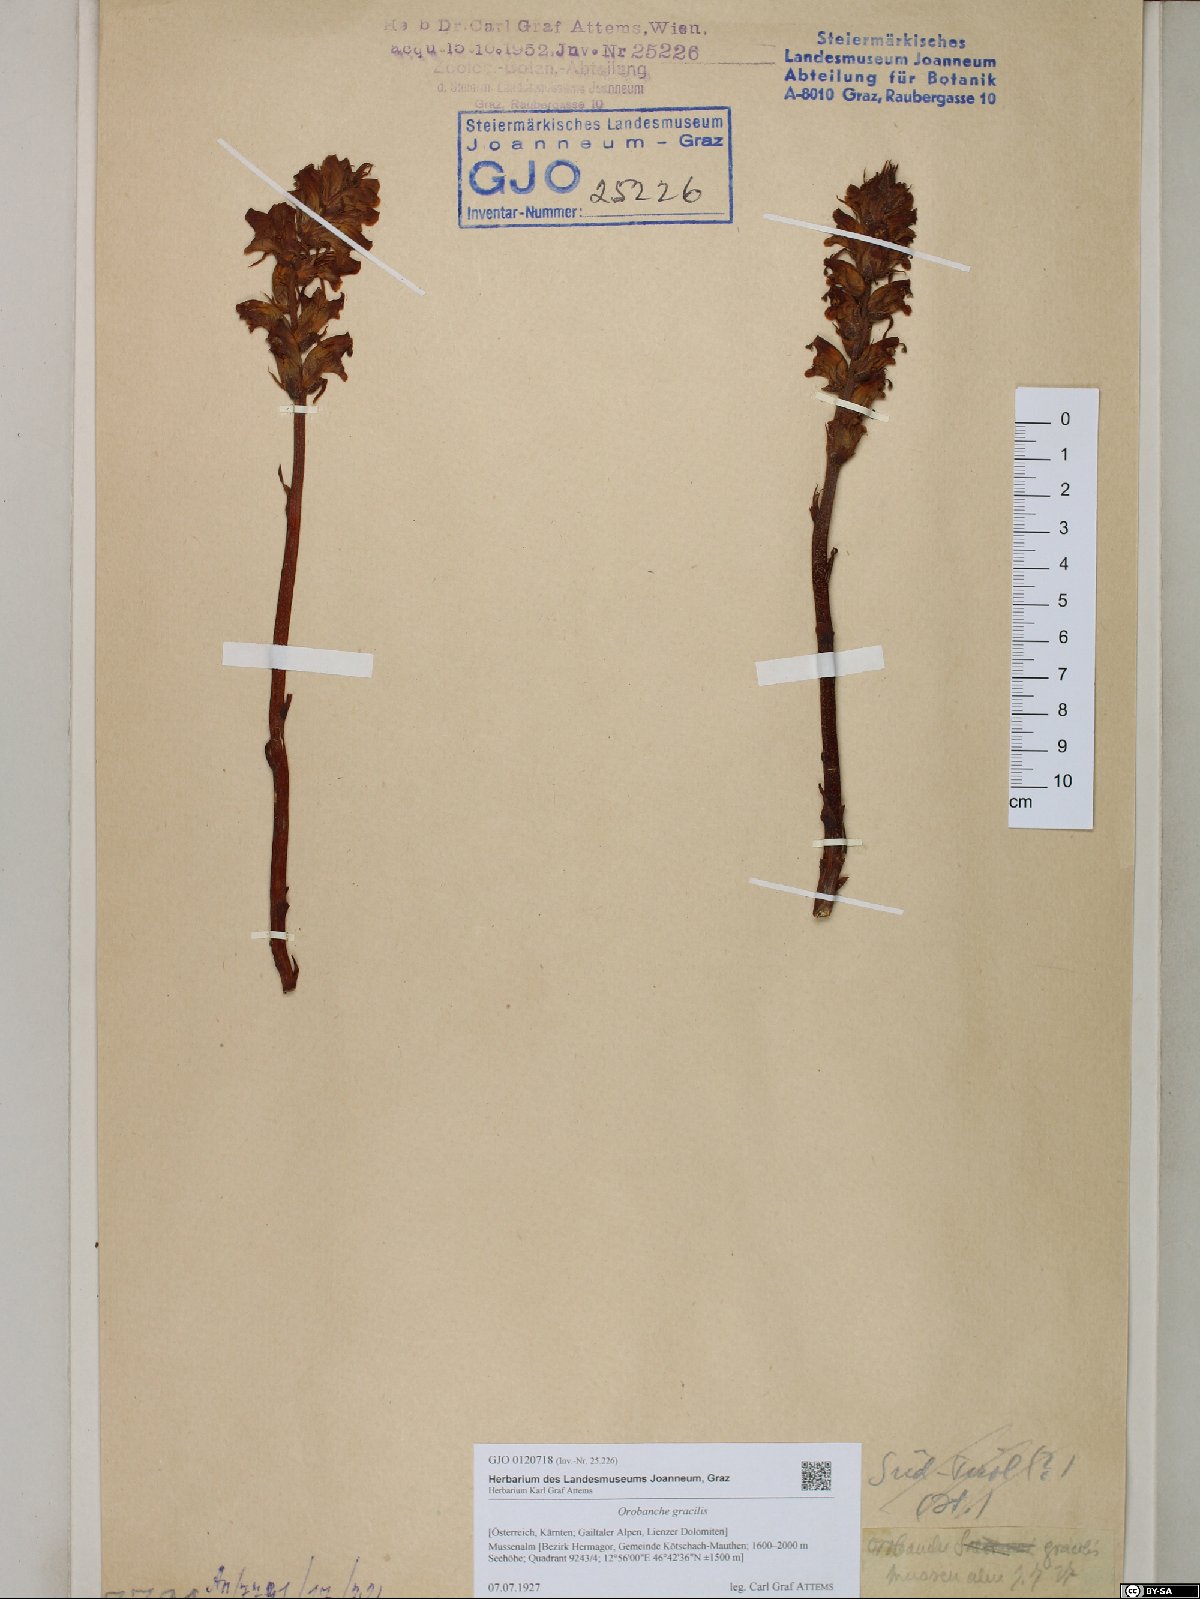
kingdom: Plantae
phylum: Tracheophyta
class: Magnoliopsida
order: Lamiales
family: Orobanchaceae
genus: Orobanche
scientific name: Orobanche gracilis
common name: Slender broomrape
